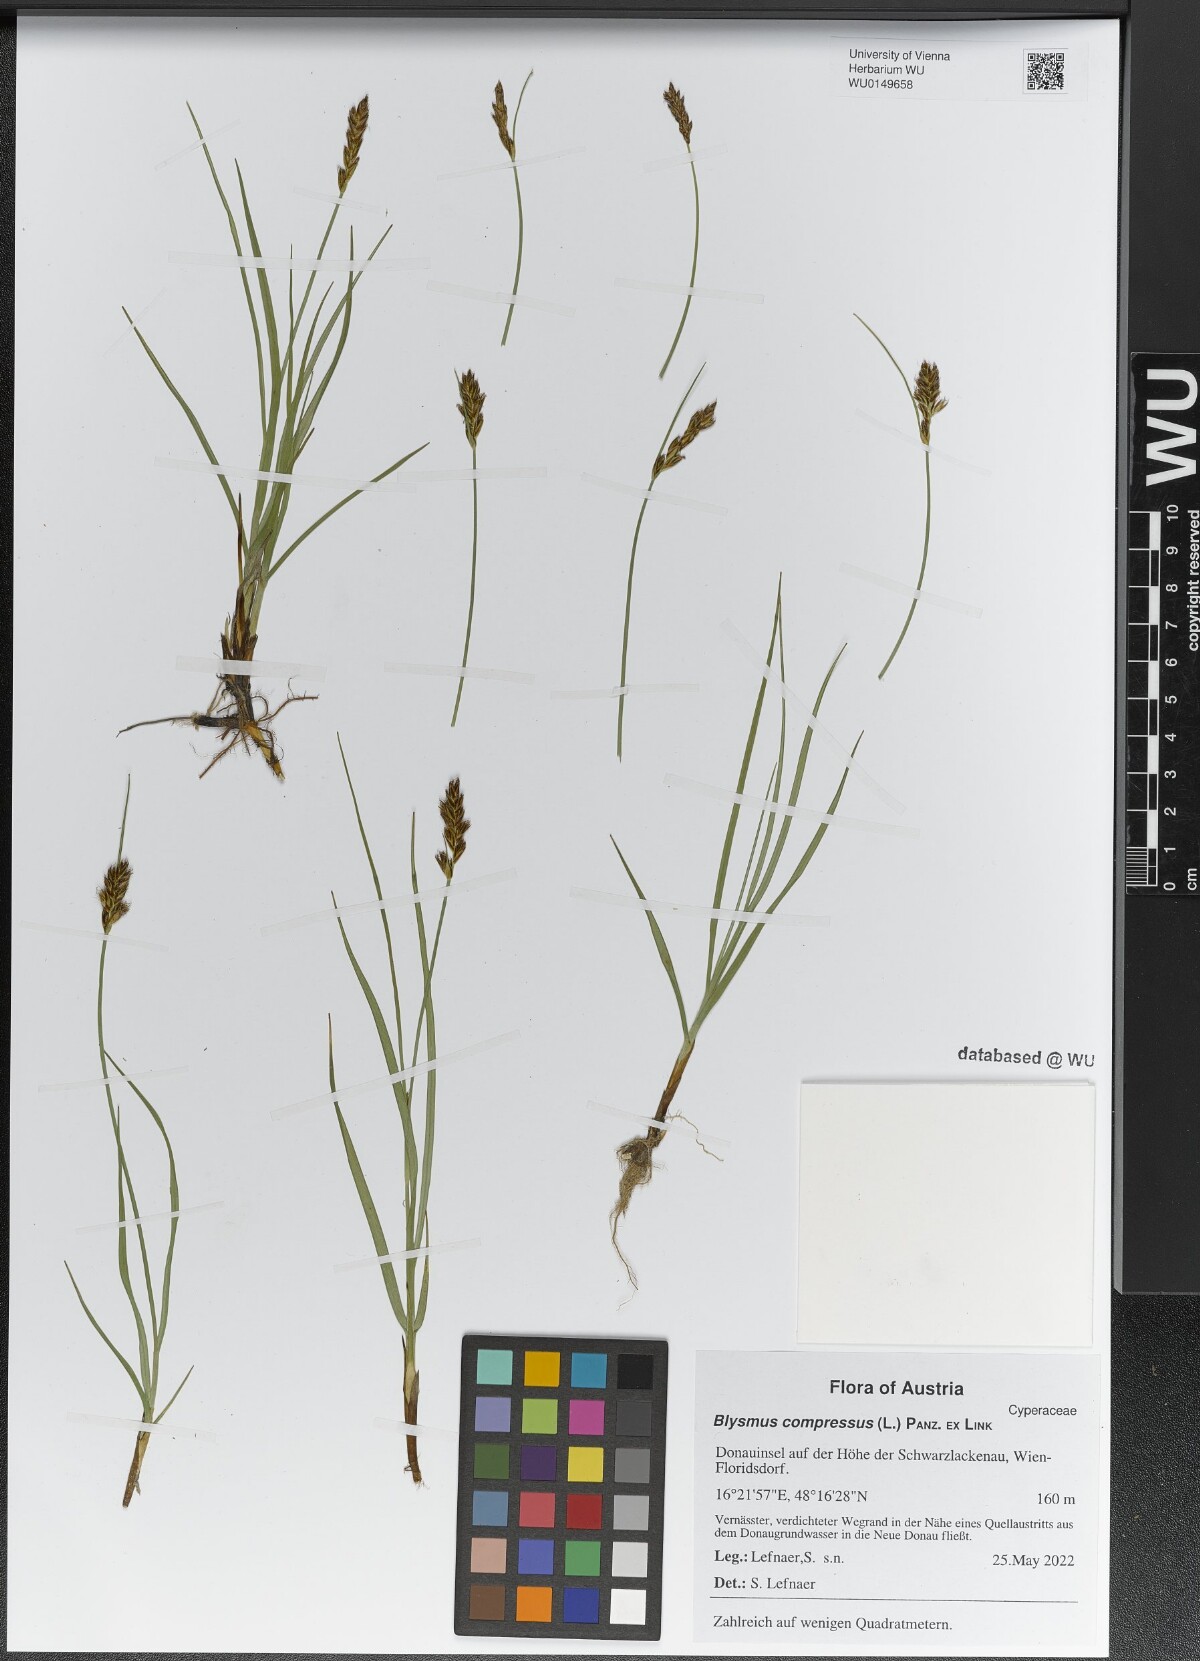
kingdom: Plantae
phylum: Tracheophyta
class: Liliopsida
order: Poales
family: Cyperaceae
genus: Blysmus
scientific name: Blysmus compressus
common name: Flat-sedge
